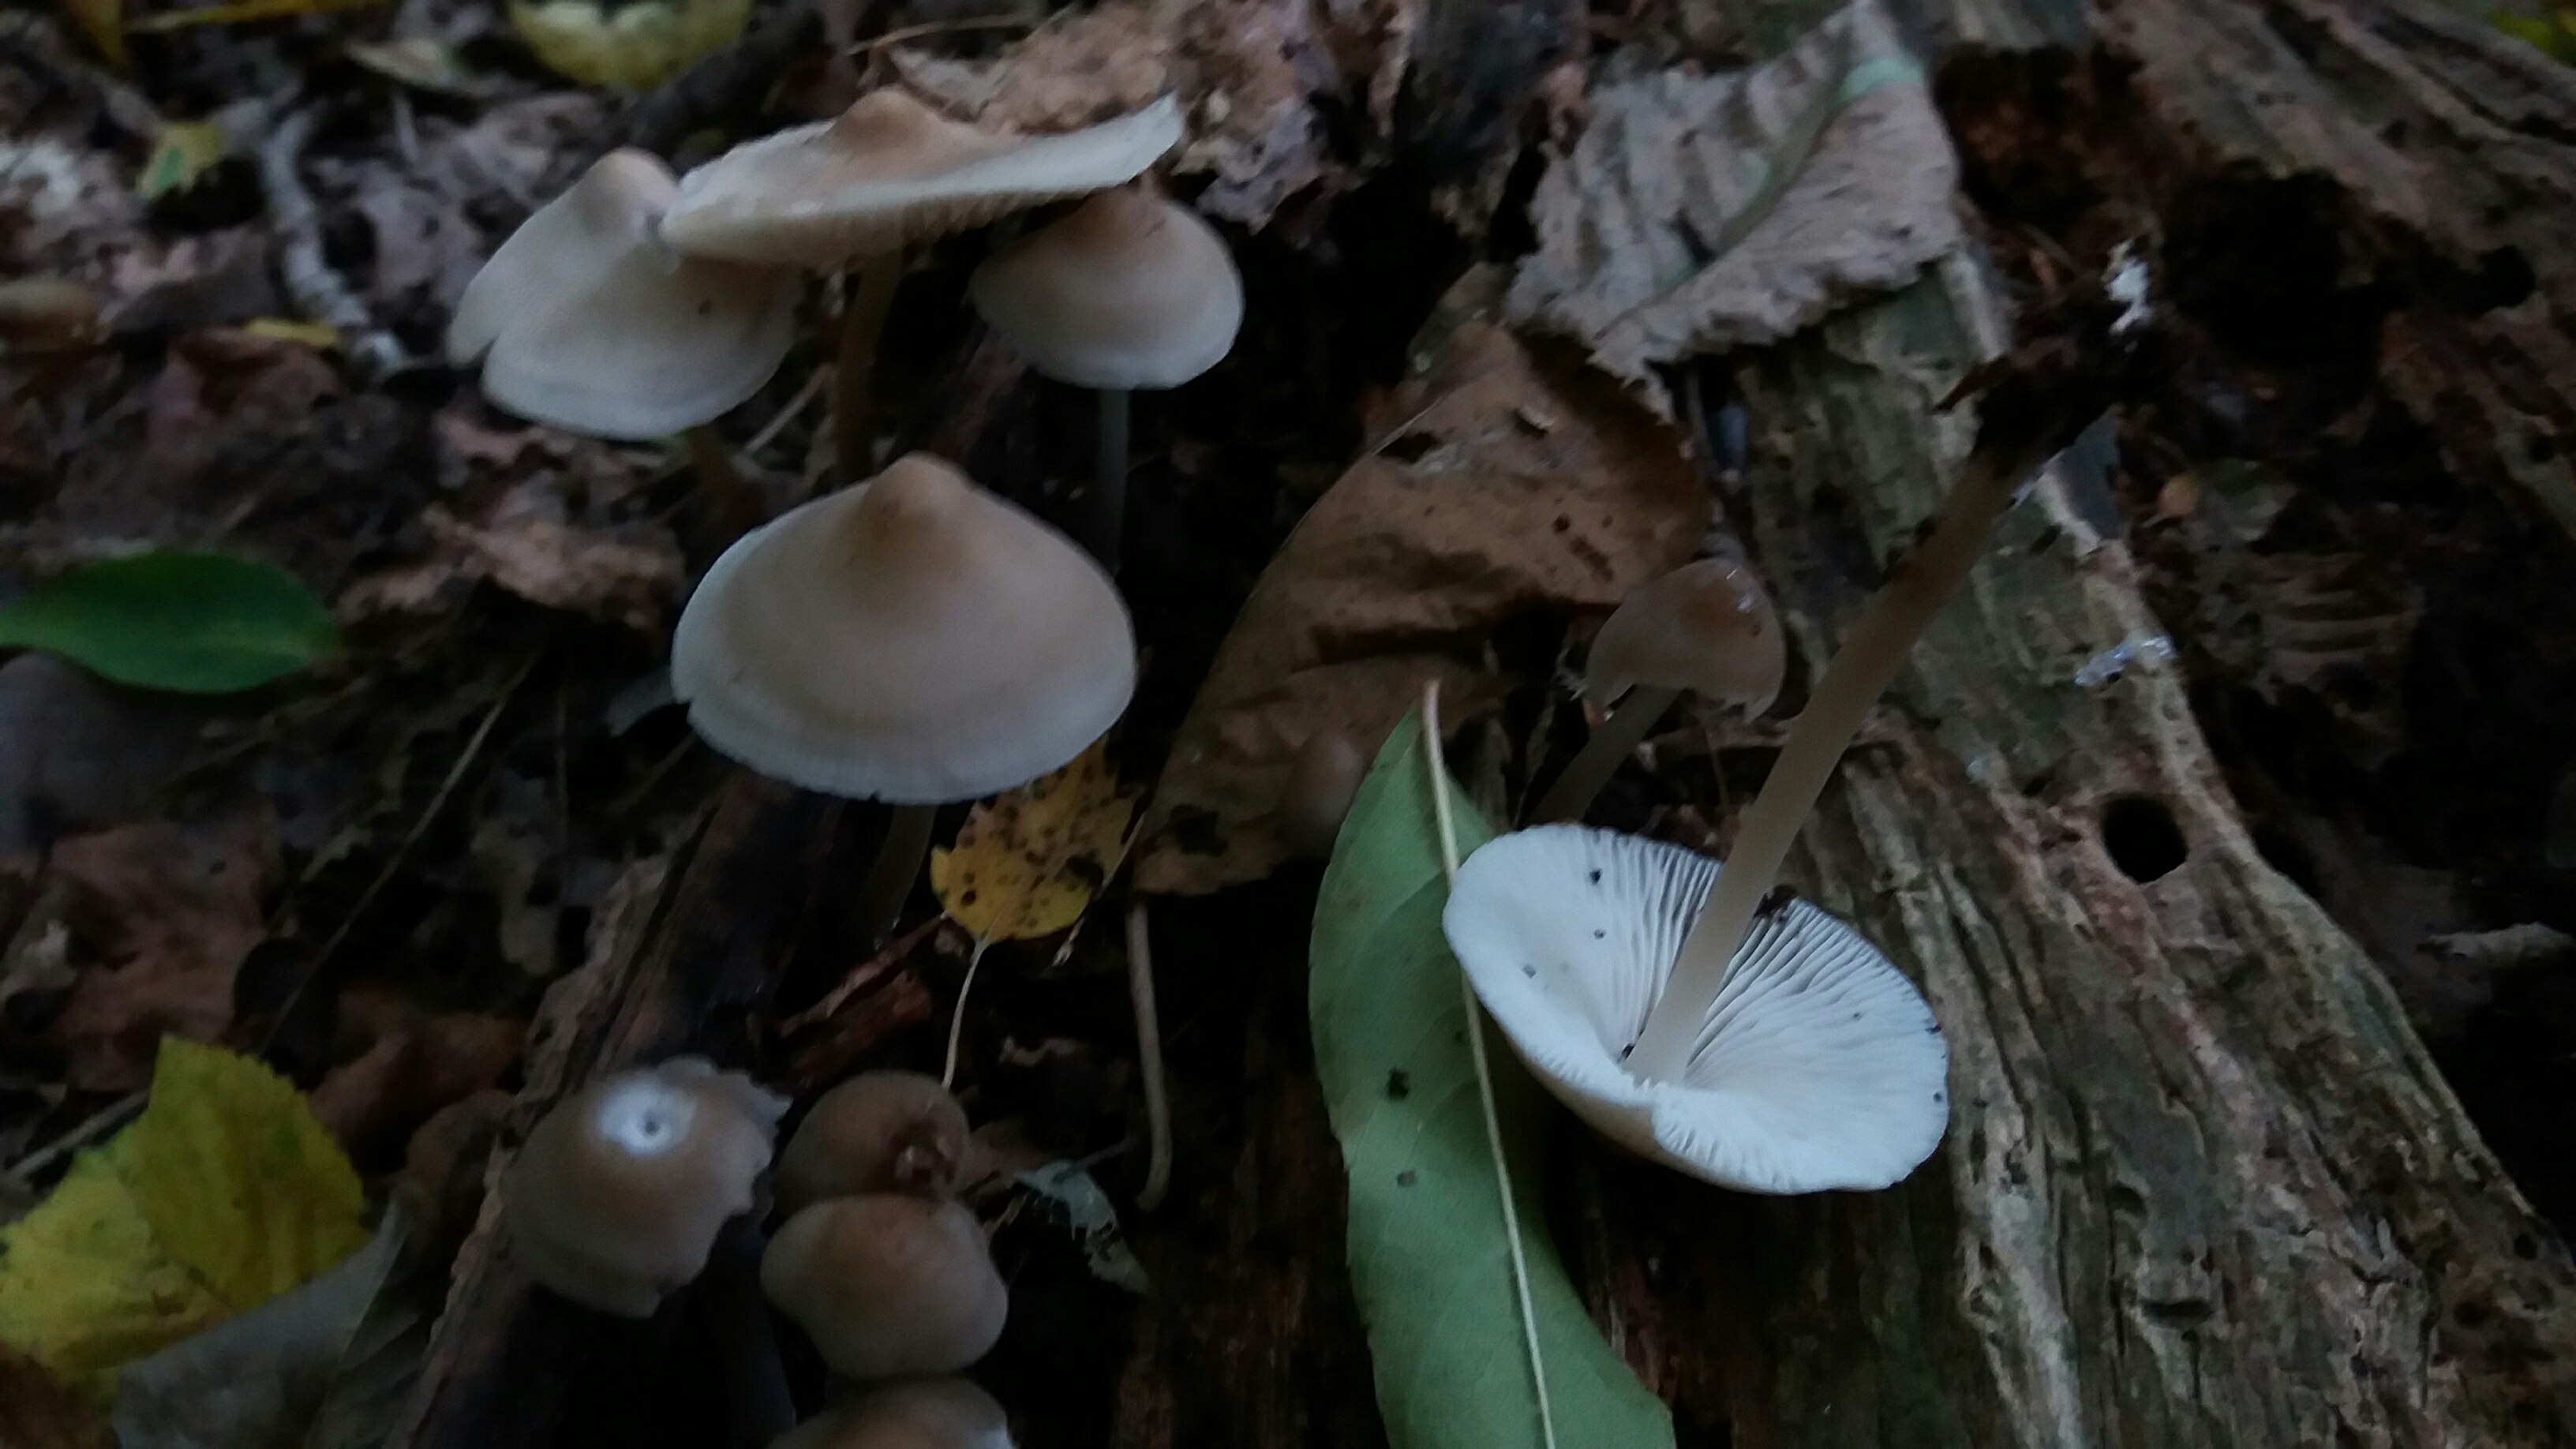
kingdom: Fungi
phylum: Basidiomycota
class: Agaricomycetes
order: Agaricales
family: Mycenaceae
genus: Mycena
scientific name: Mycena galericulata
